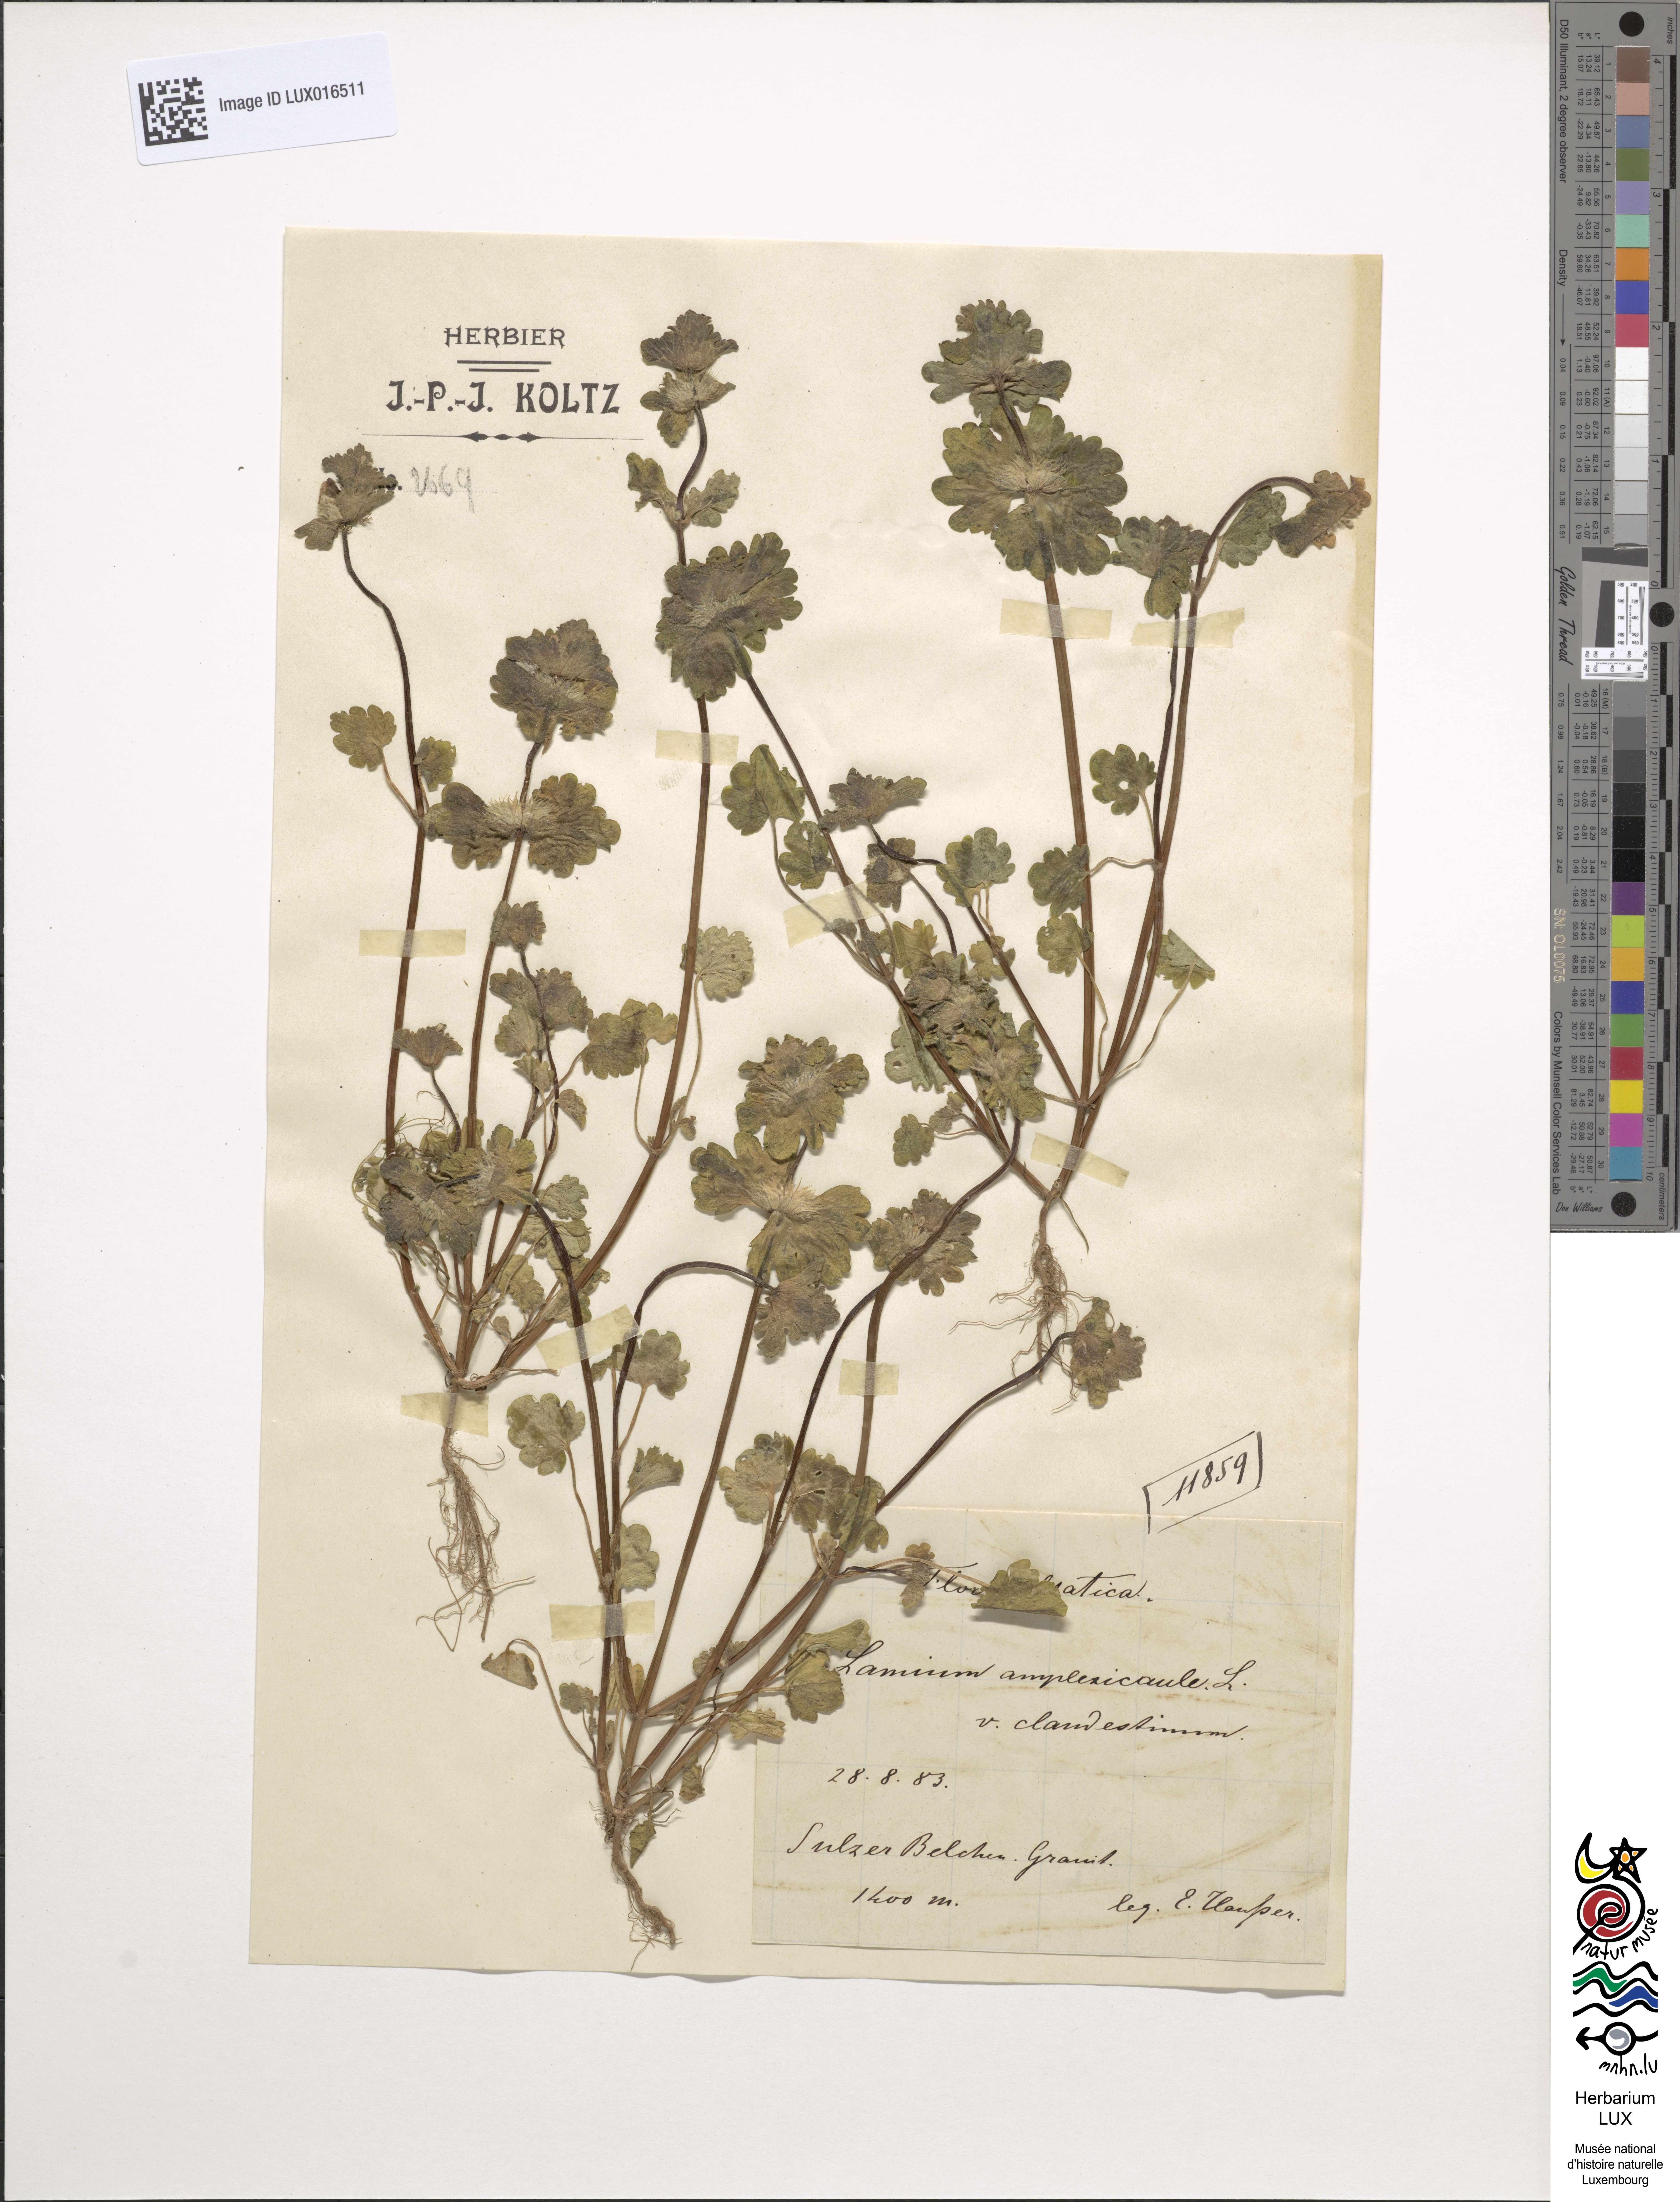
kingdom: Plantae
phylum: Tracheophyta
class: Magnoliopsida
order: Lamiales
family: Lamiaceae
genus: Lamium
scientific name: Lamium amplexicaule
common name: Henbit dead-nettle
